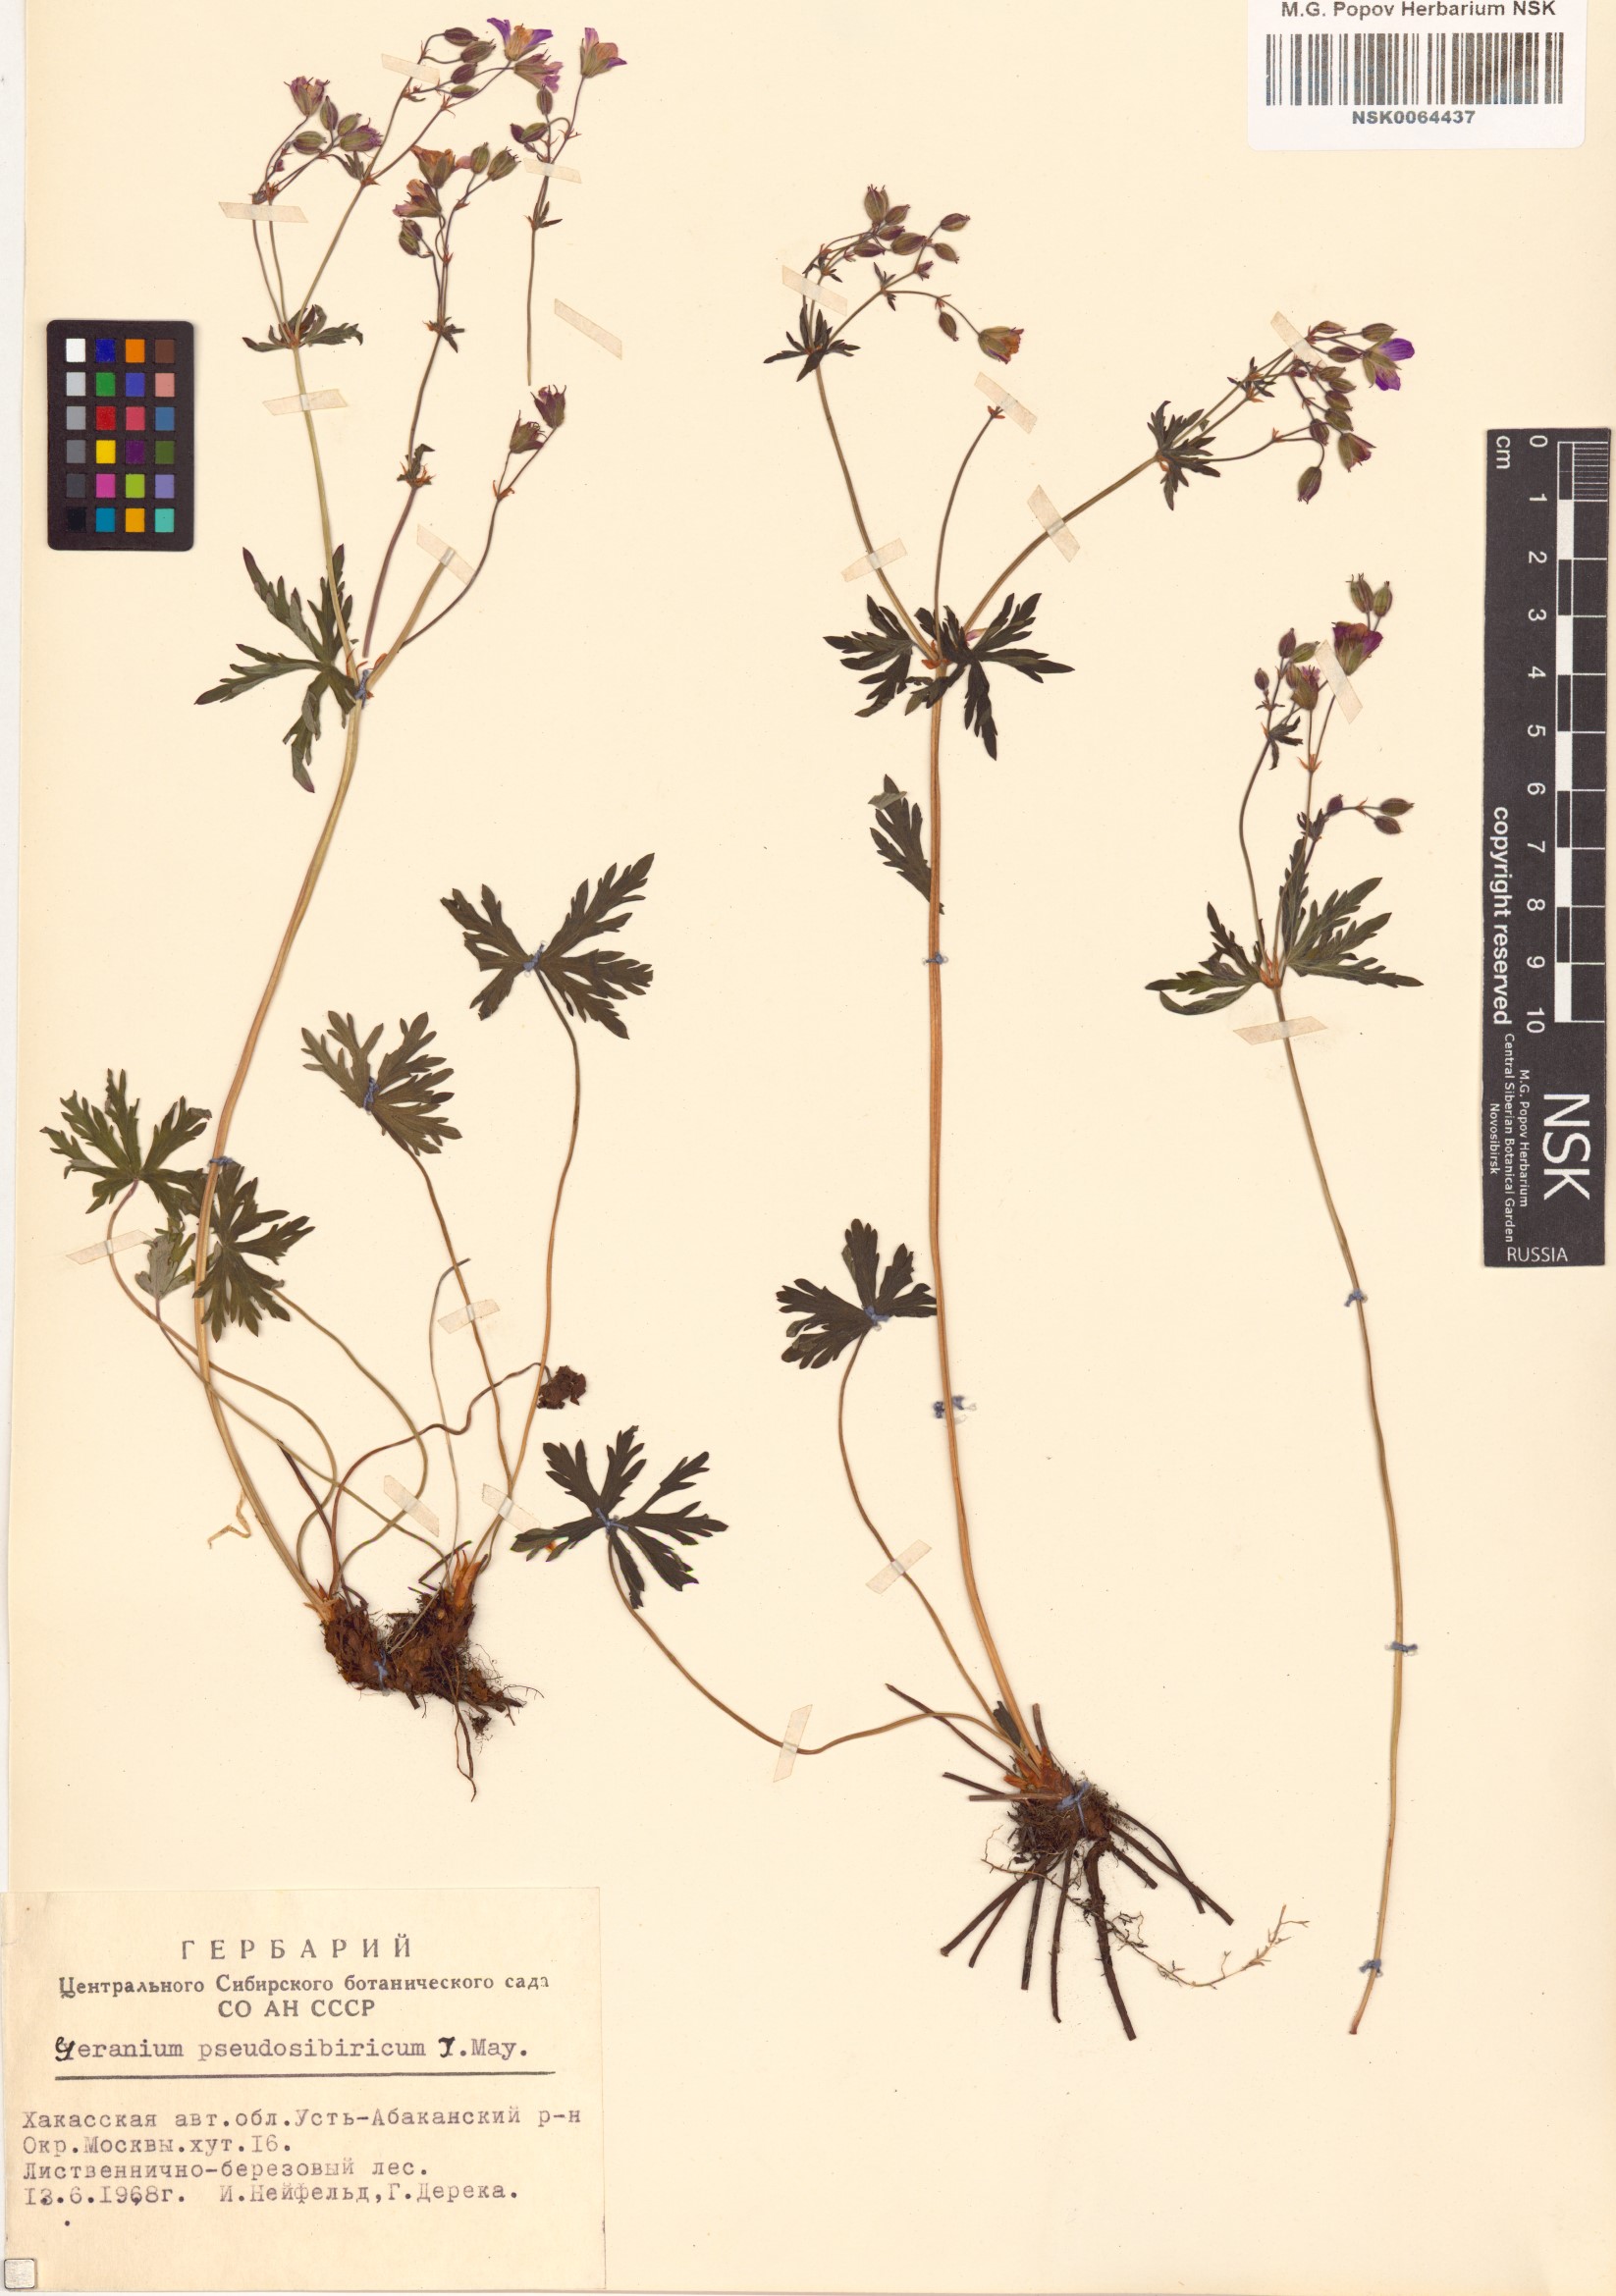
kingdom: Plantae
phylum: Tracheophyta
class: Magnoliopsida
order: Geraniales
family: Geraniaceae
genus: Geranium
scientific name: Geranium pseudosibiricum
